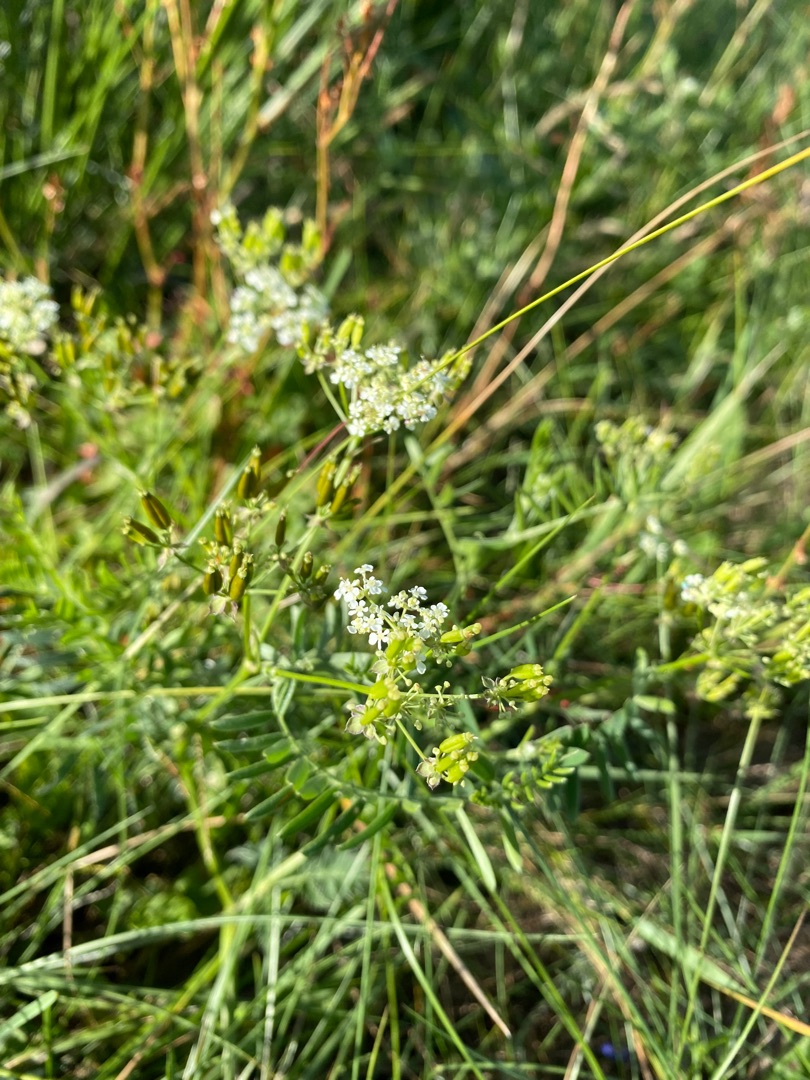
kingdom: Plantae
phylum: Tracheophyta
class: Magnoliopsida
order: Apiales
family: Apiaceae
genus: Anthriscus
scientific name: Anthriscus sylvestris
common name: Vild kørvel
